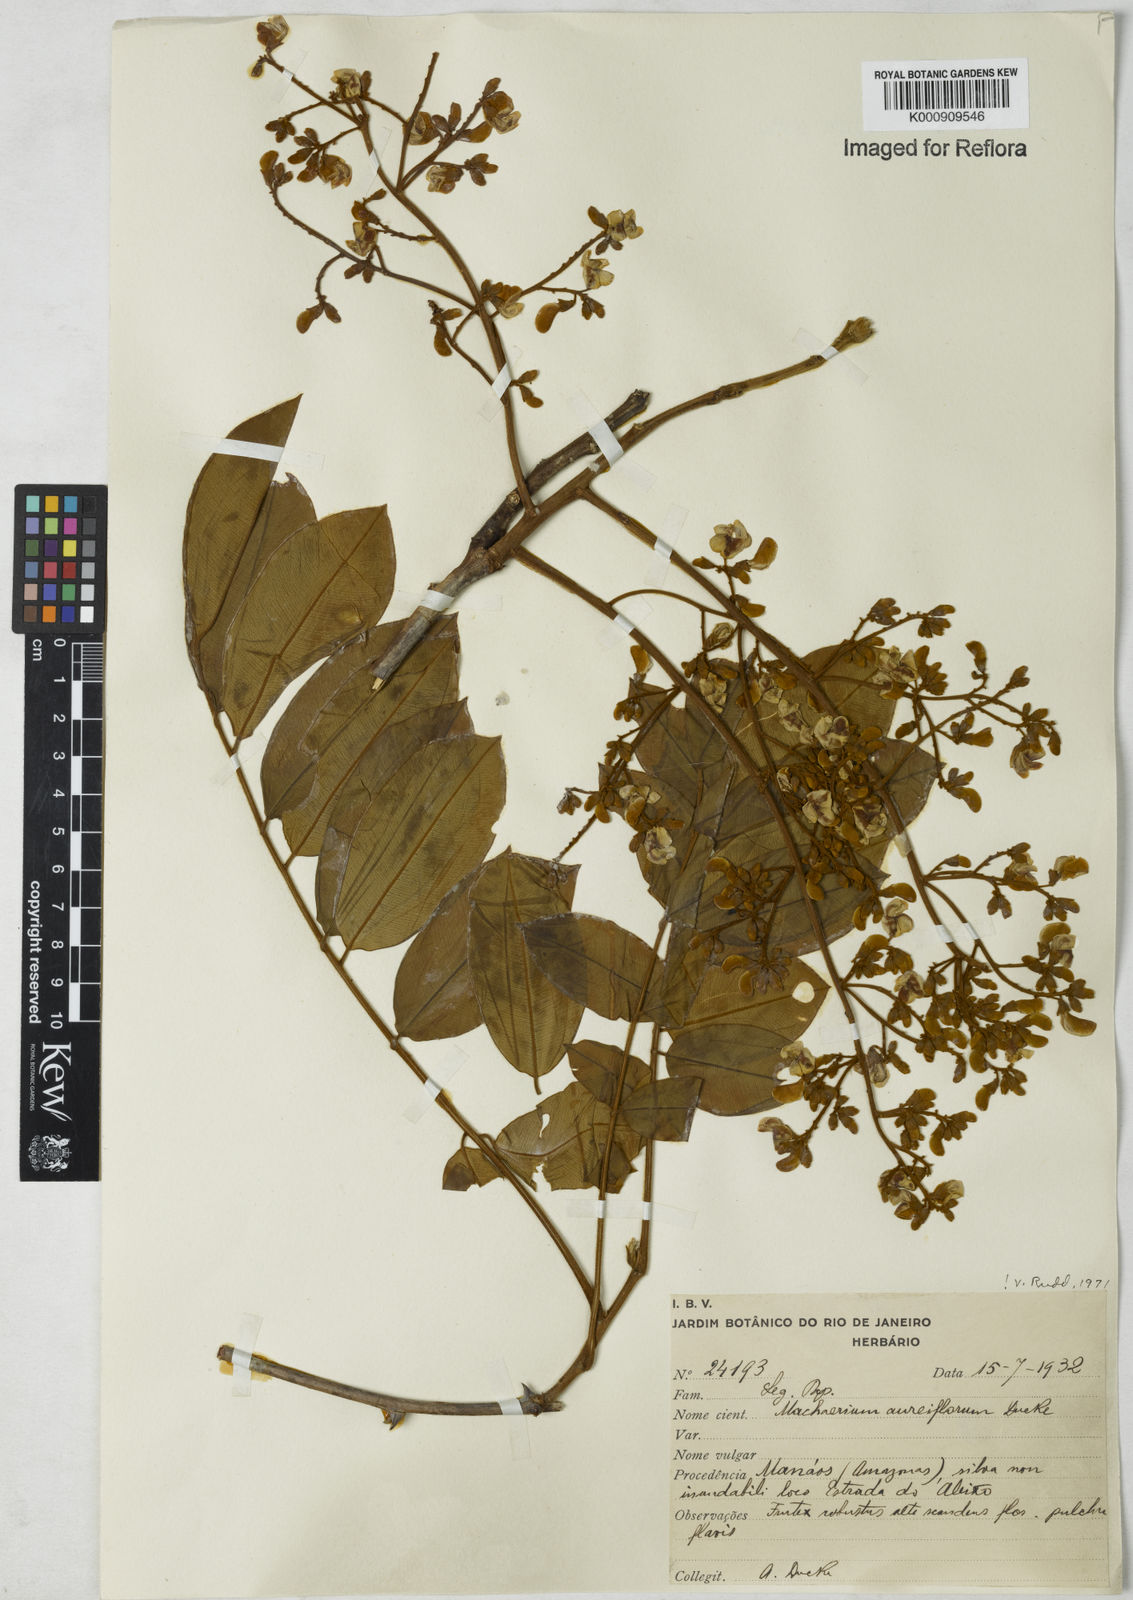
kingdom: Plantae
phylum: Tracheophyta
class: Magnoliopsida
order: Fabales
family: Fabaceae
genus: Machaerium
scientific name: Machaerium aureiflorum
